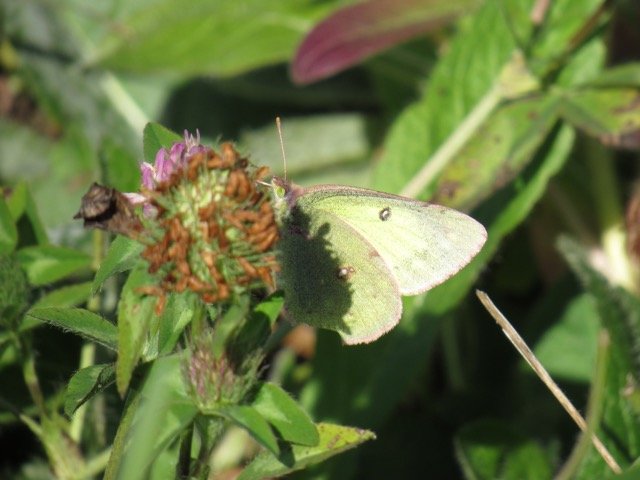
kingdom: Animalia
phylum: Arthropoda
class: Insecta
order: Lepidoptera
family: Pieridae
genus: Colias
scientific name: Colias philodice
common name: Clouded Sulphur
